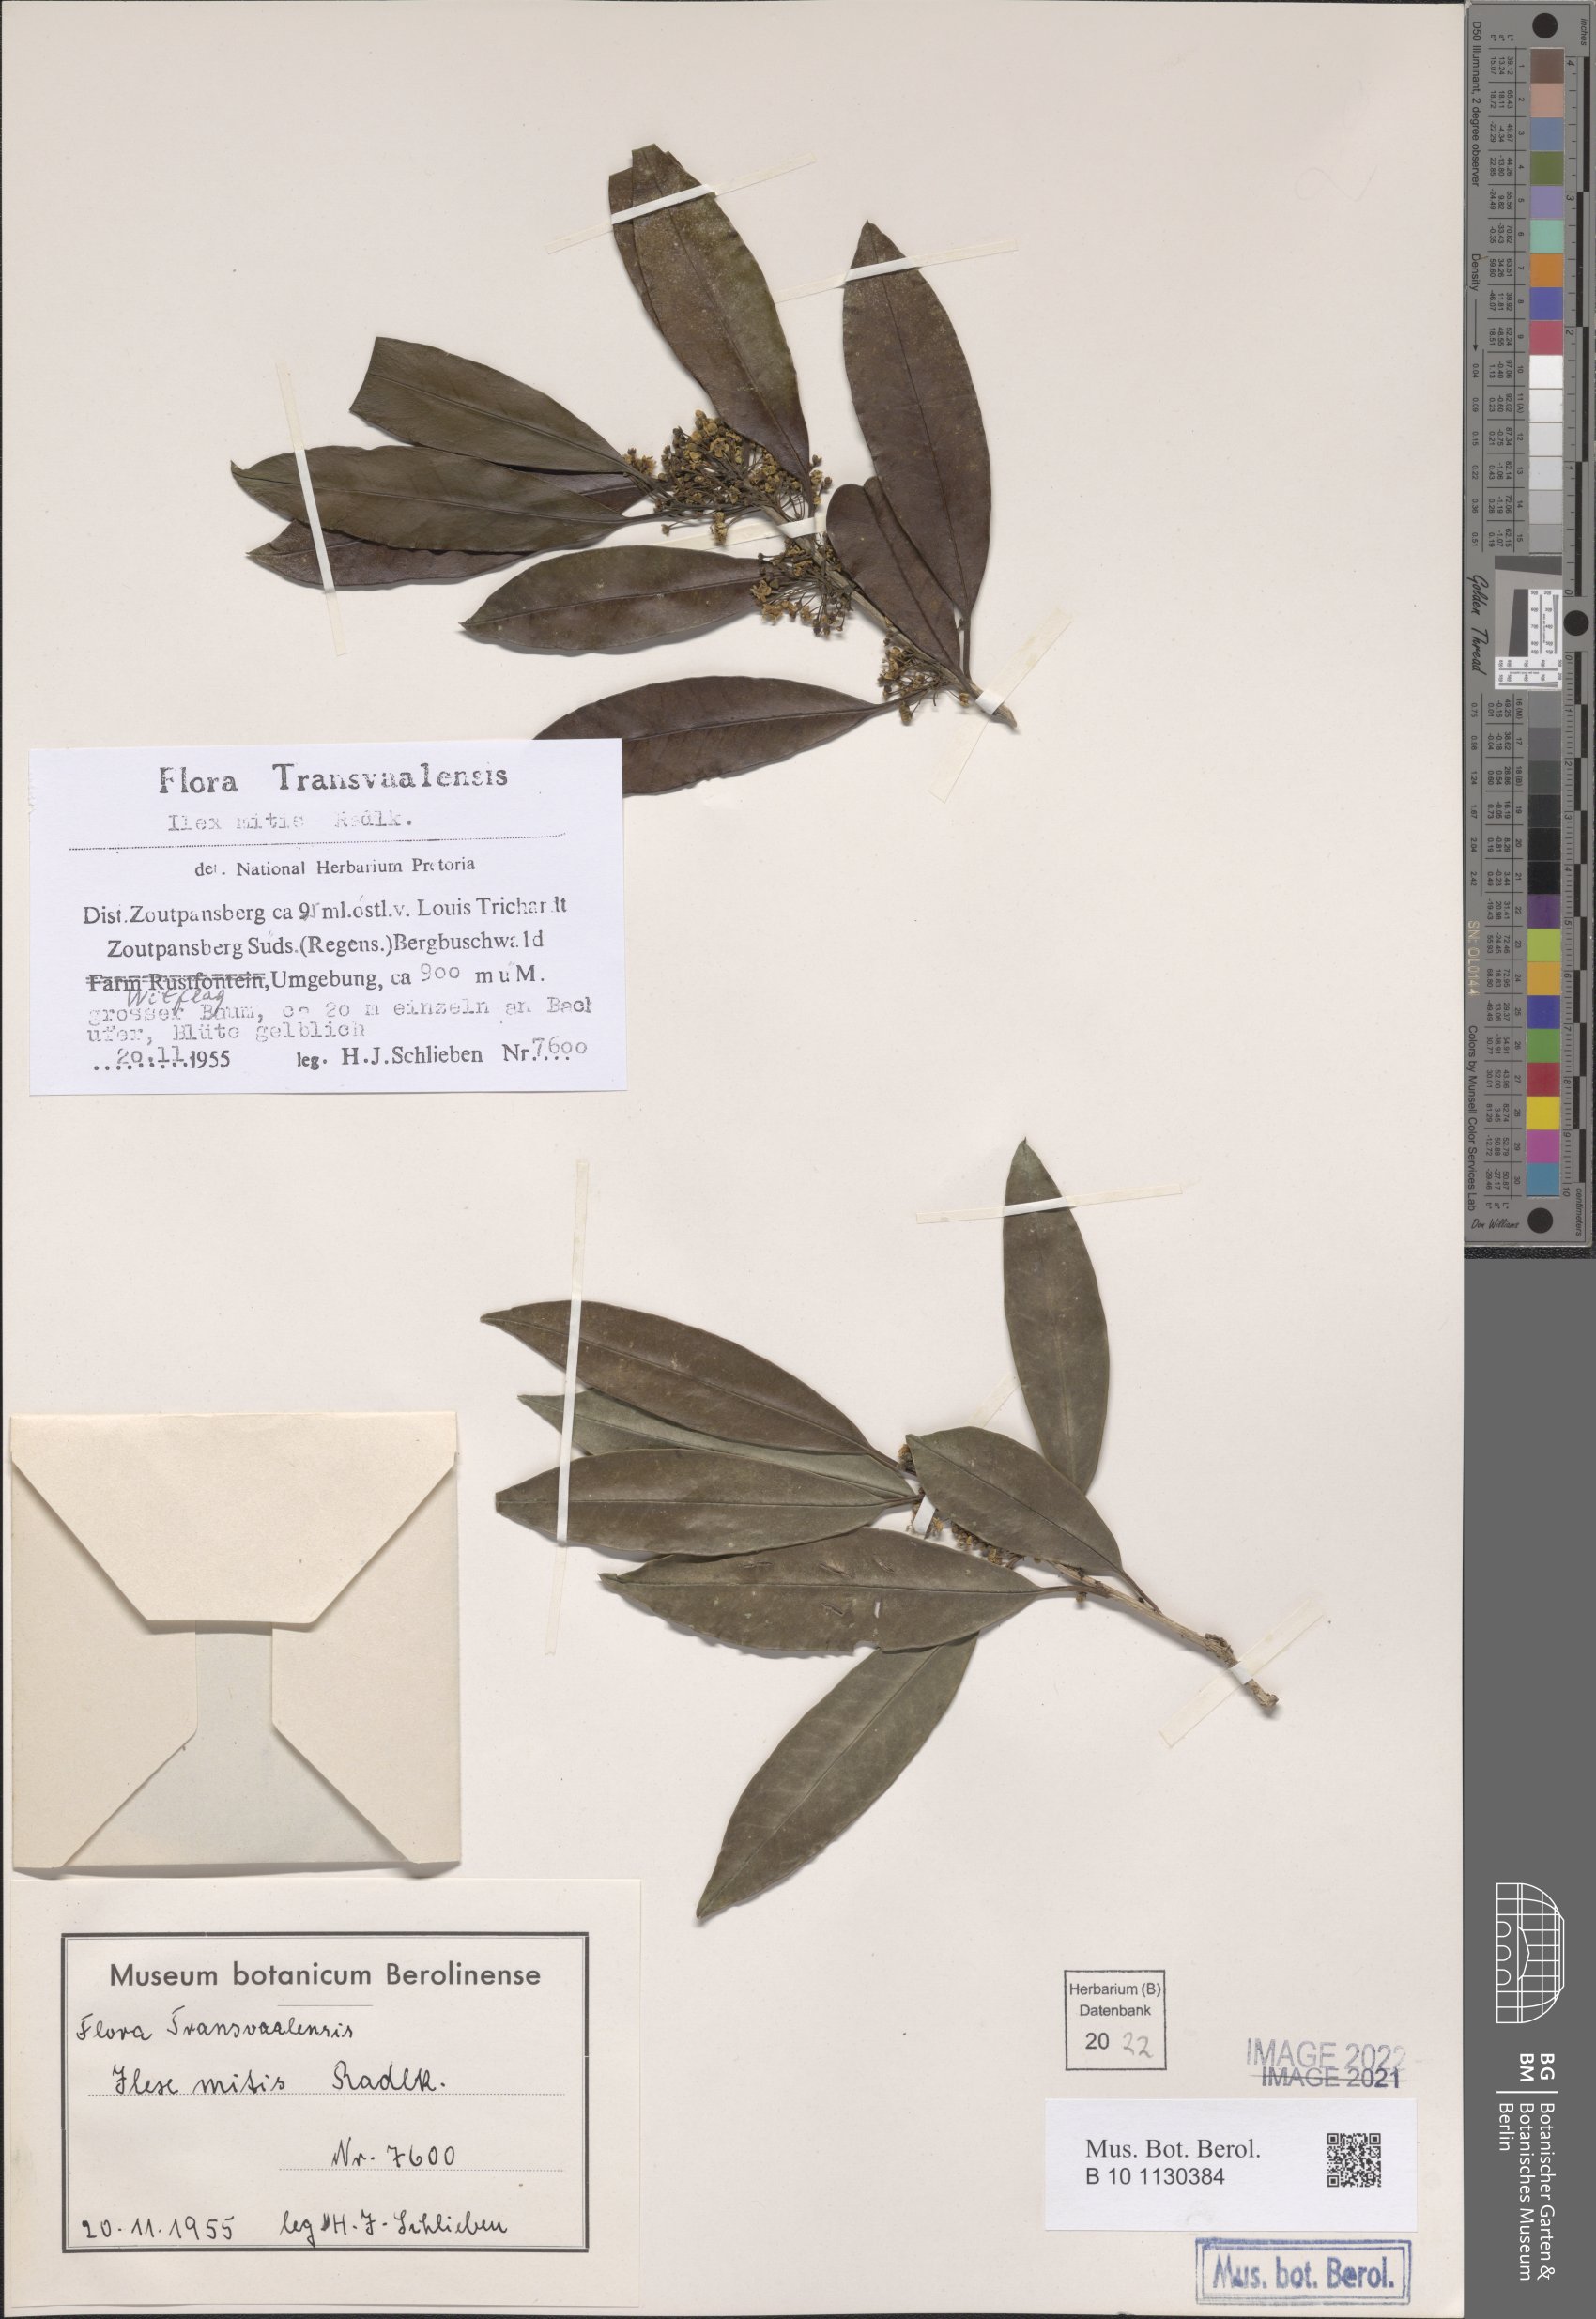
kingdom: Plantae
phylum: Tracheophyta
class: Magnoliopsida
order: Aquifoliales
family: Aquifoliaceae
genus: Ilex
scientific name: Ilex mitis
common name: African holly
